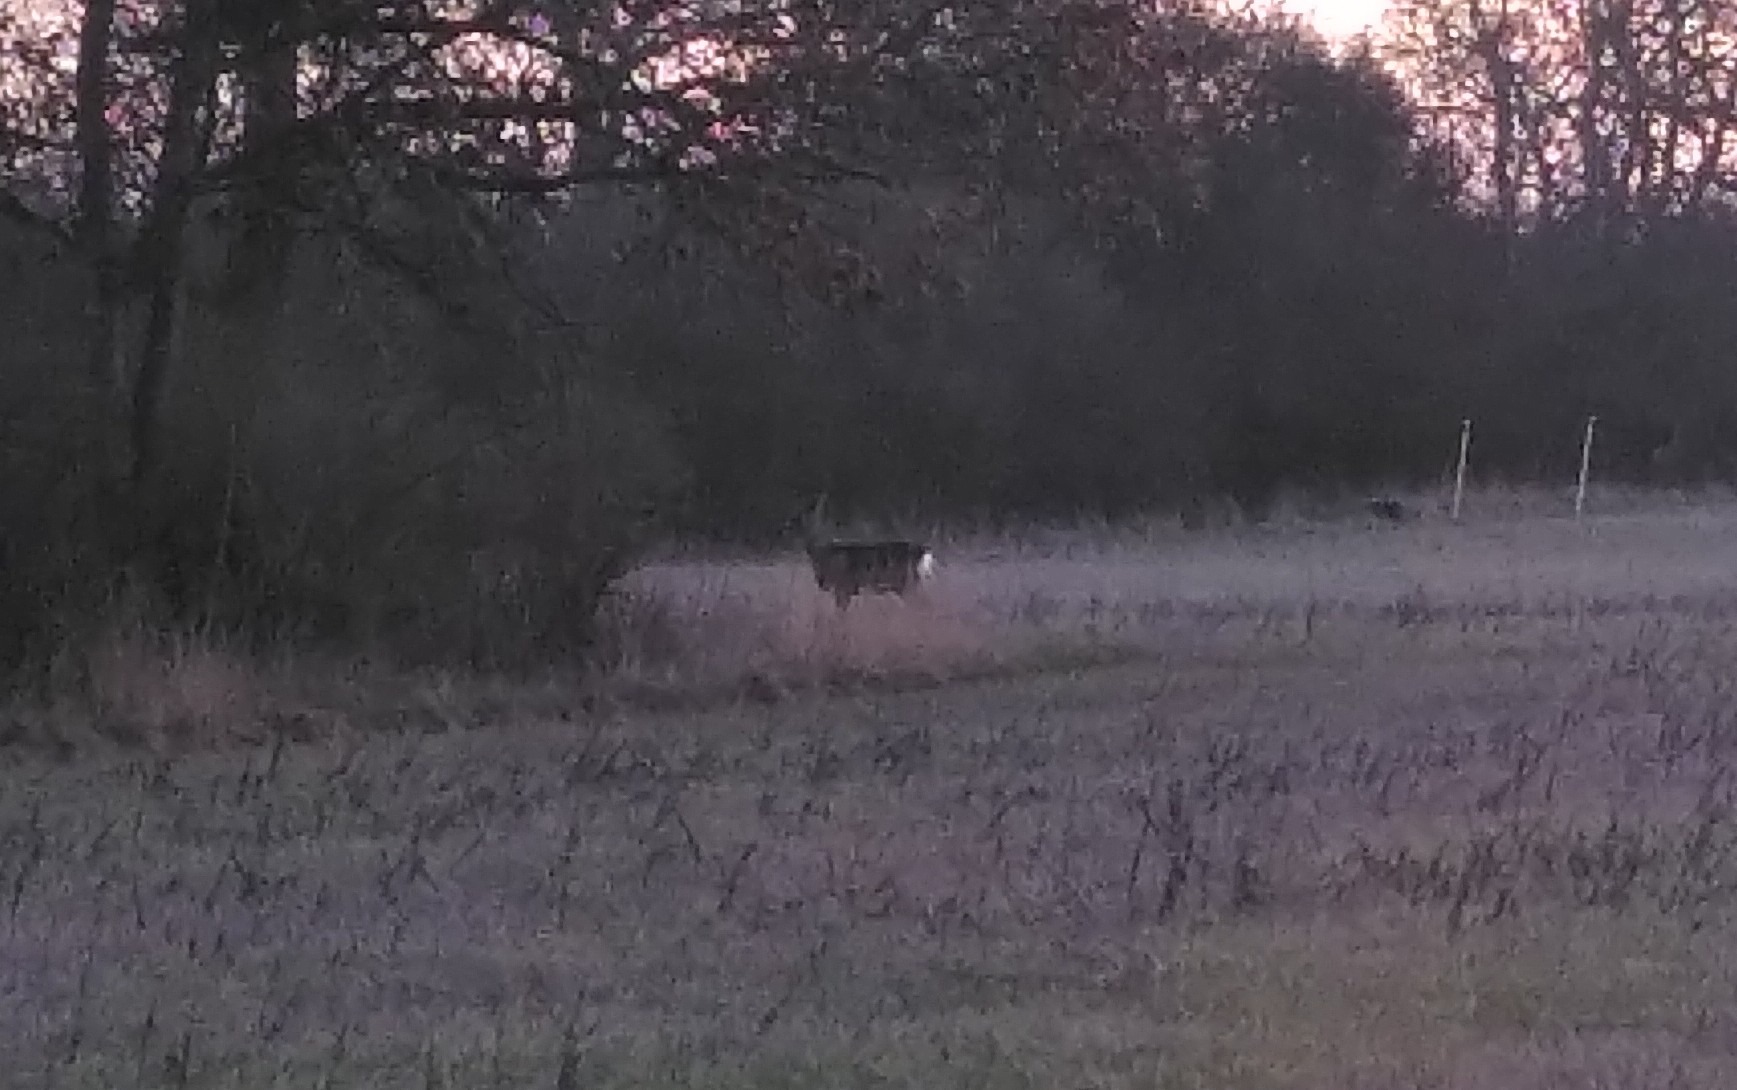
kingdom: Animalia
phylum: Chordata
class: Mammalia
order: Artiodactyla
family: Cervidae
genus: Capreolus
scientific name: Capreolus capreolus
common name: Rådyr
